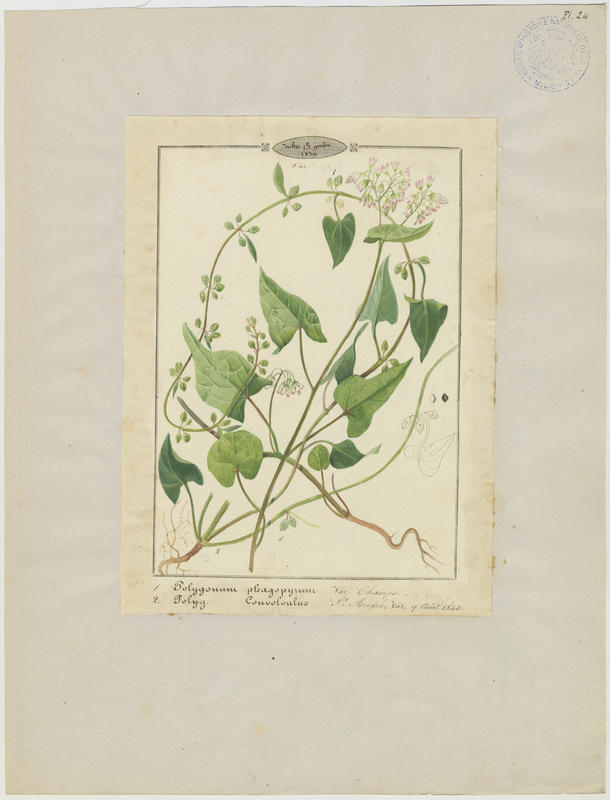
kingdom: Plantae
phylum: Tracheophyta
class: Magnoliopsida
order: Caryophyllales
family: Polygonaceae
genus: Fallopia
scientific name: Fallopia convolvulus
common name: Black bindweed
